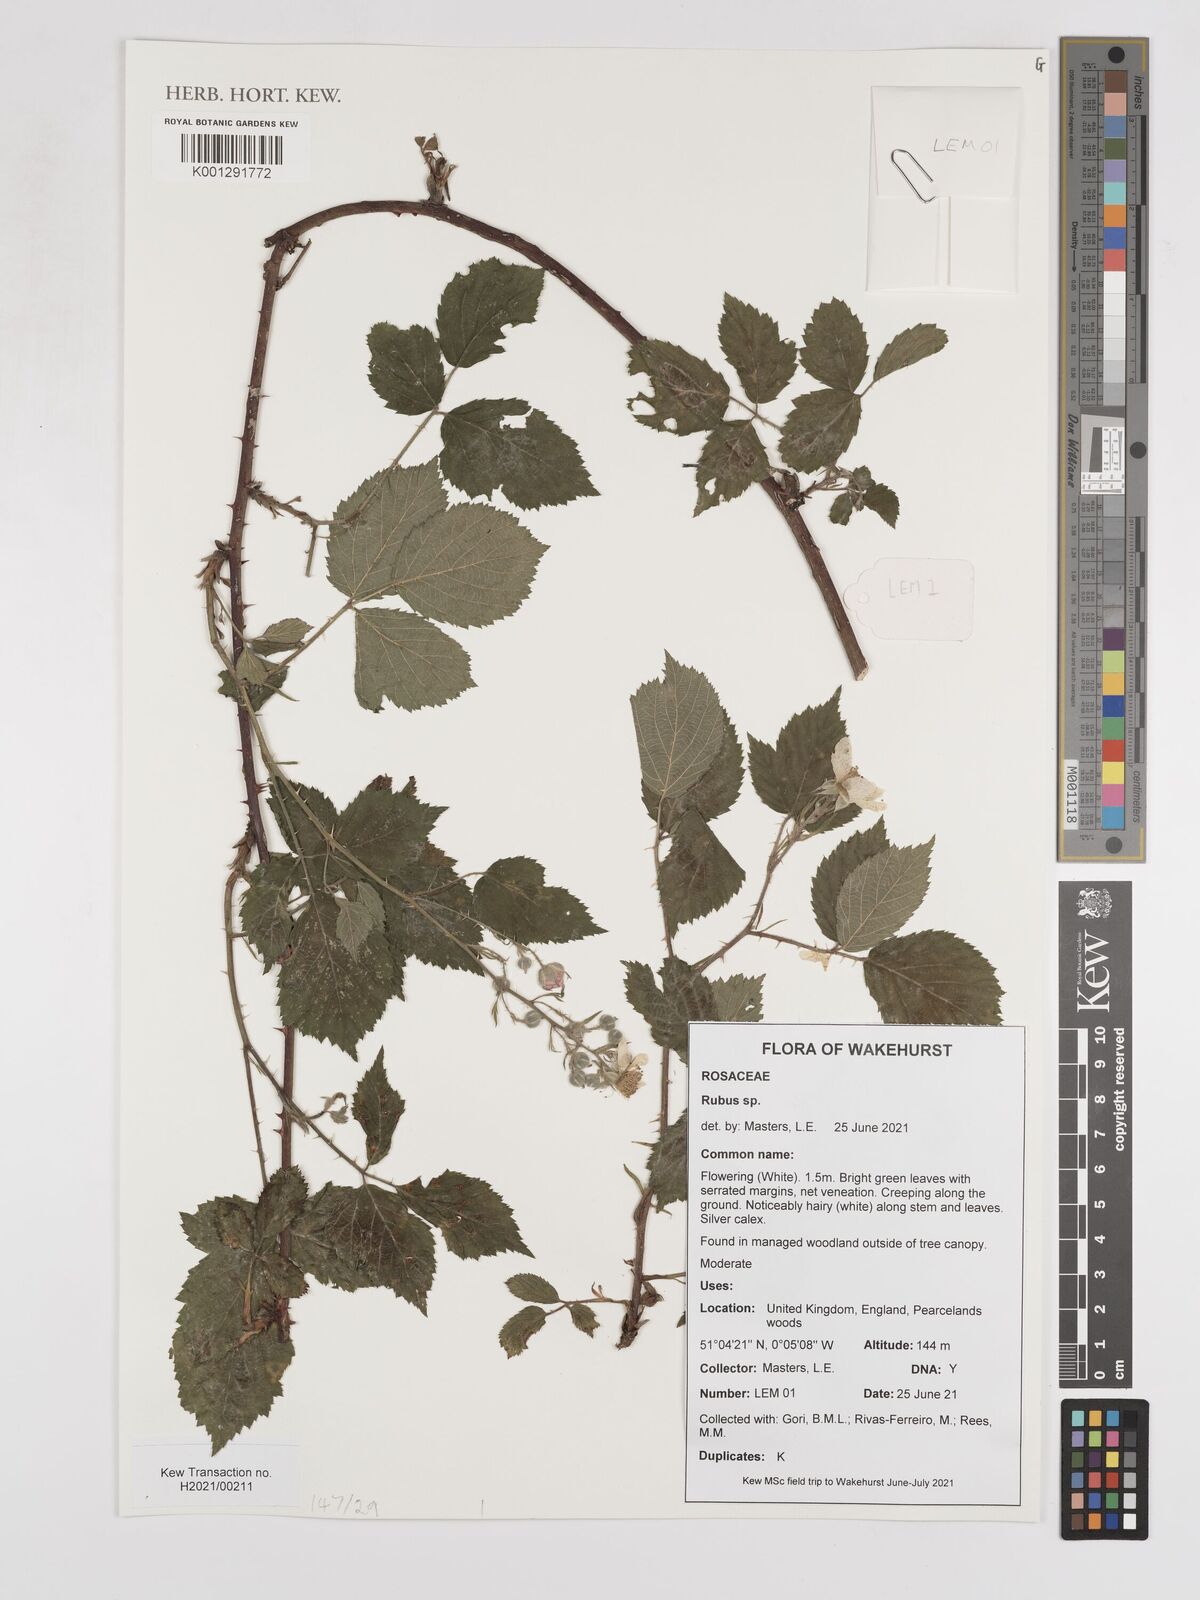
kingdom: Plantae
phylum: Tracheophyta
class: Magnoliopsida
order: Rosales
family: Rosaceae
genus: Rubus
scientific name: Rubus
